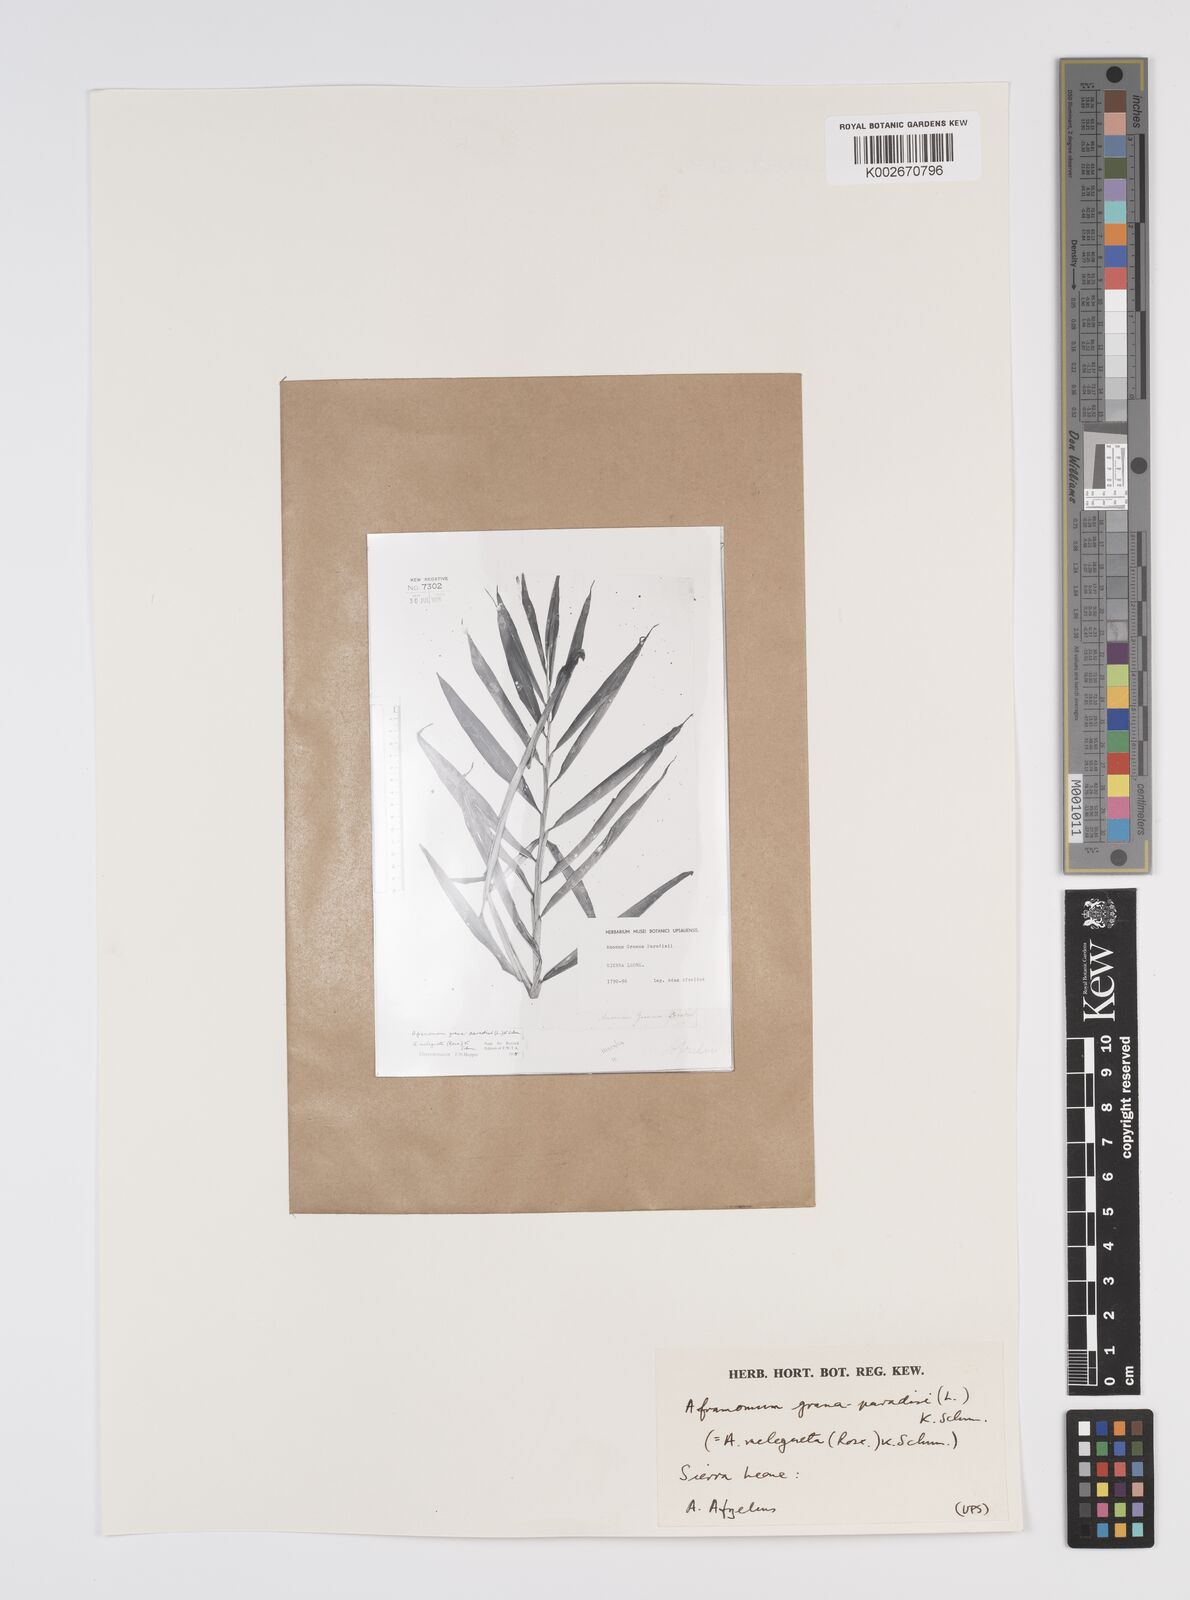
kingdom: Plantae
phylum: Tracheophyta
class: Liliopsida
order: Zingiberales
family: Zingiberaceae
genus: Aframomum
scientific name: Aframomum melegueta
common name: Grains of paradise
